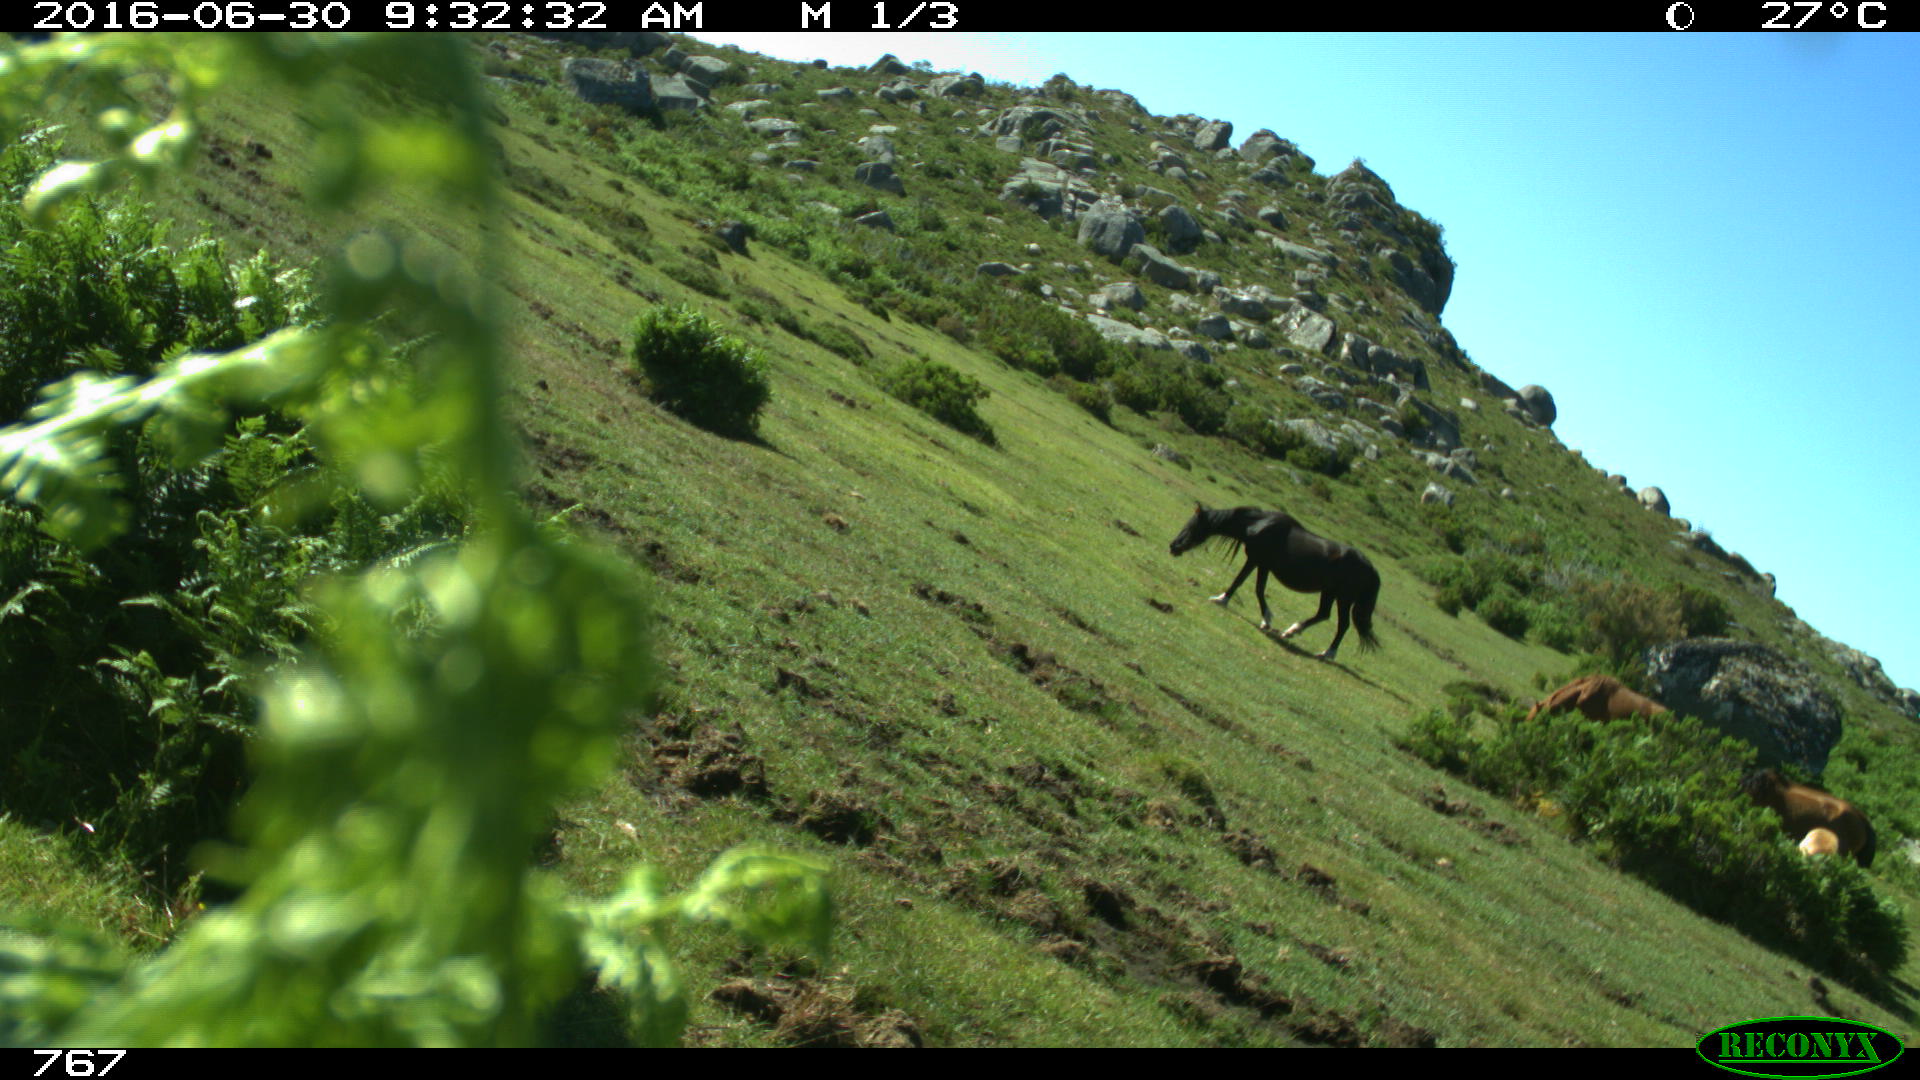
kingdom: Animalia
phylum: Chordata
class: Mammalia
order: Perissodactyla
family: Equidae
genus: Equus
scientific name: Equus caballus
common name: Horse
